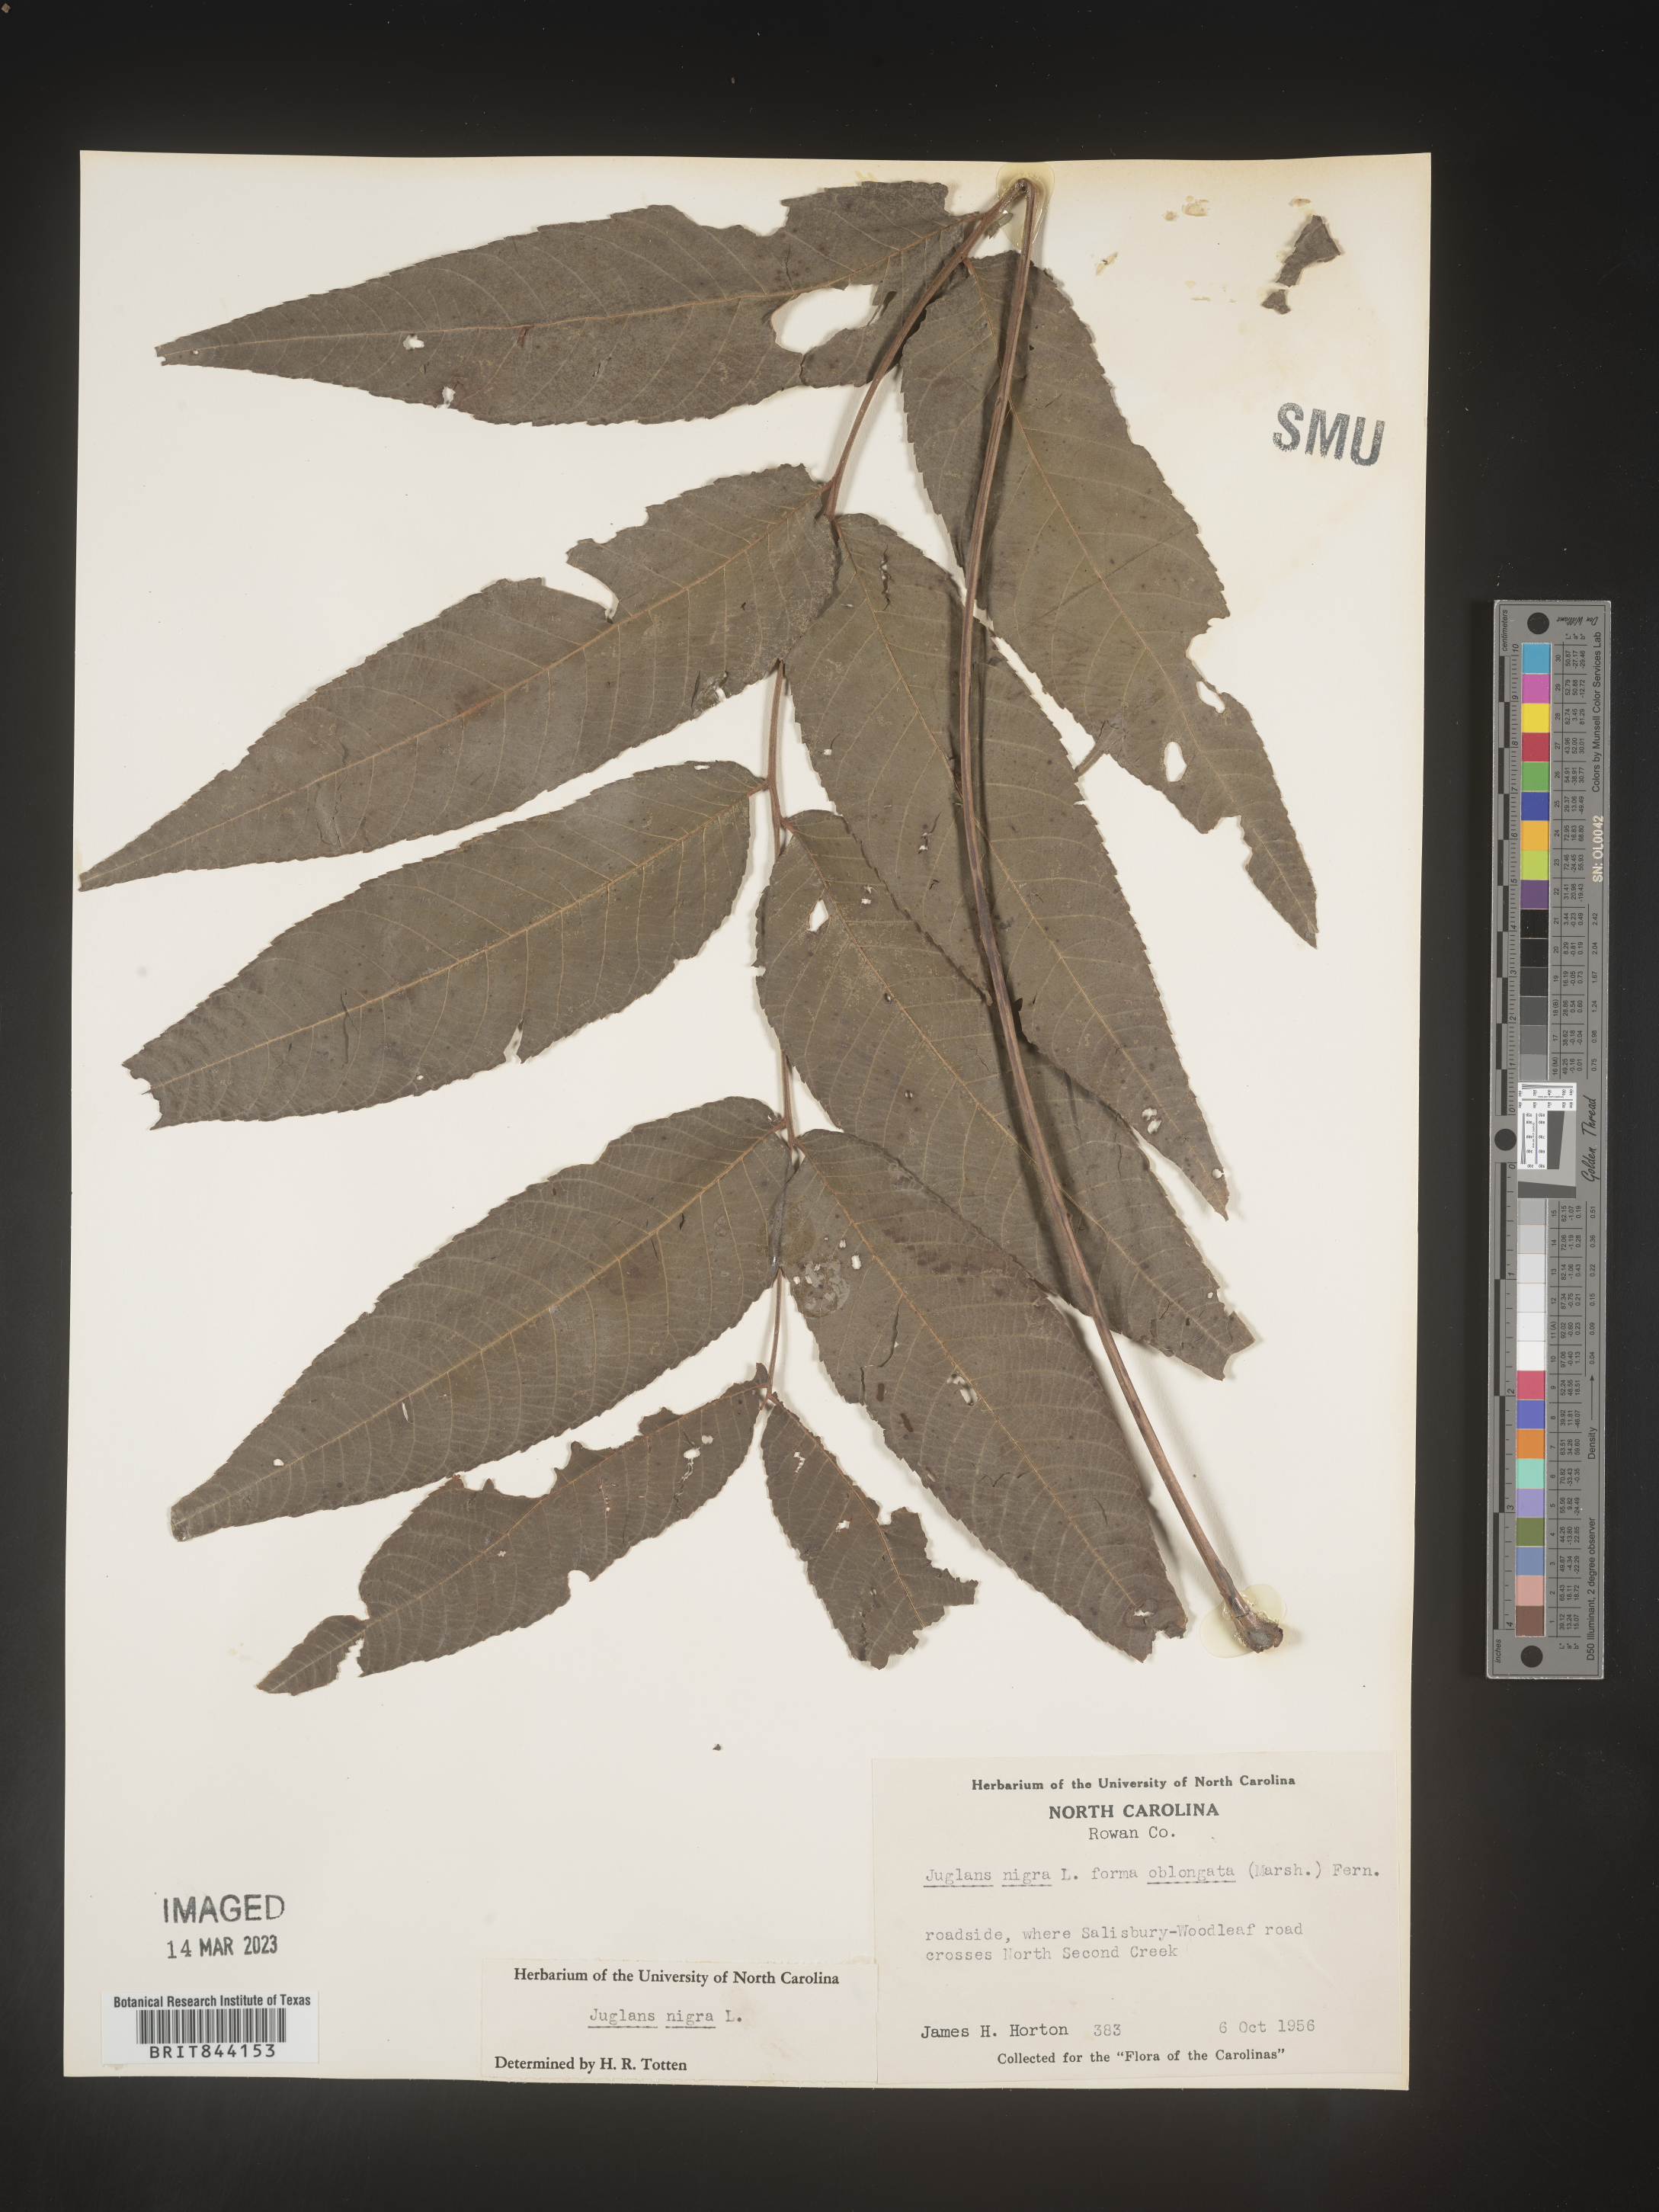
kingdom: Plantae
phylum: Tracheophyta
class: Magnoliopsida
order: Fagales
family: Juglandaceae
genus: Juglans
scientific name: Juglans nigra
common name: Black walnut
